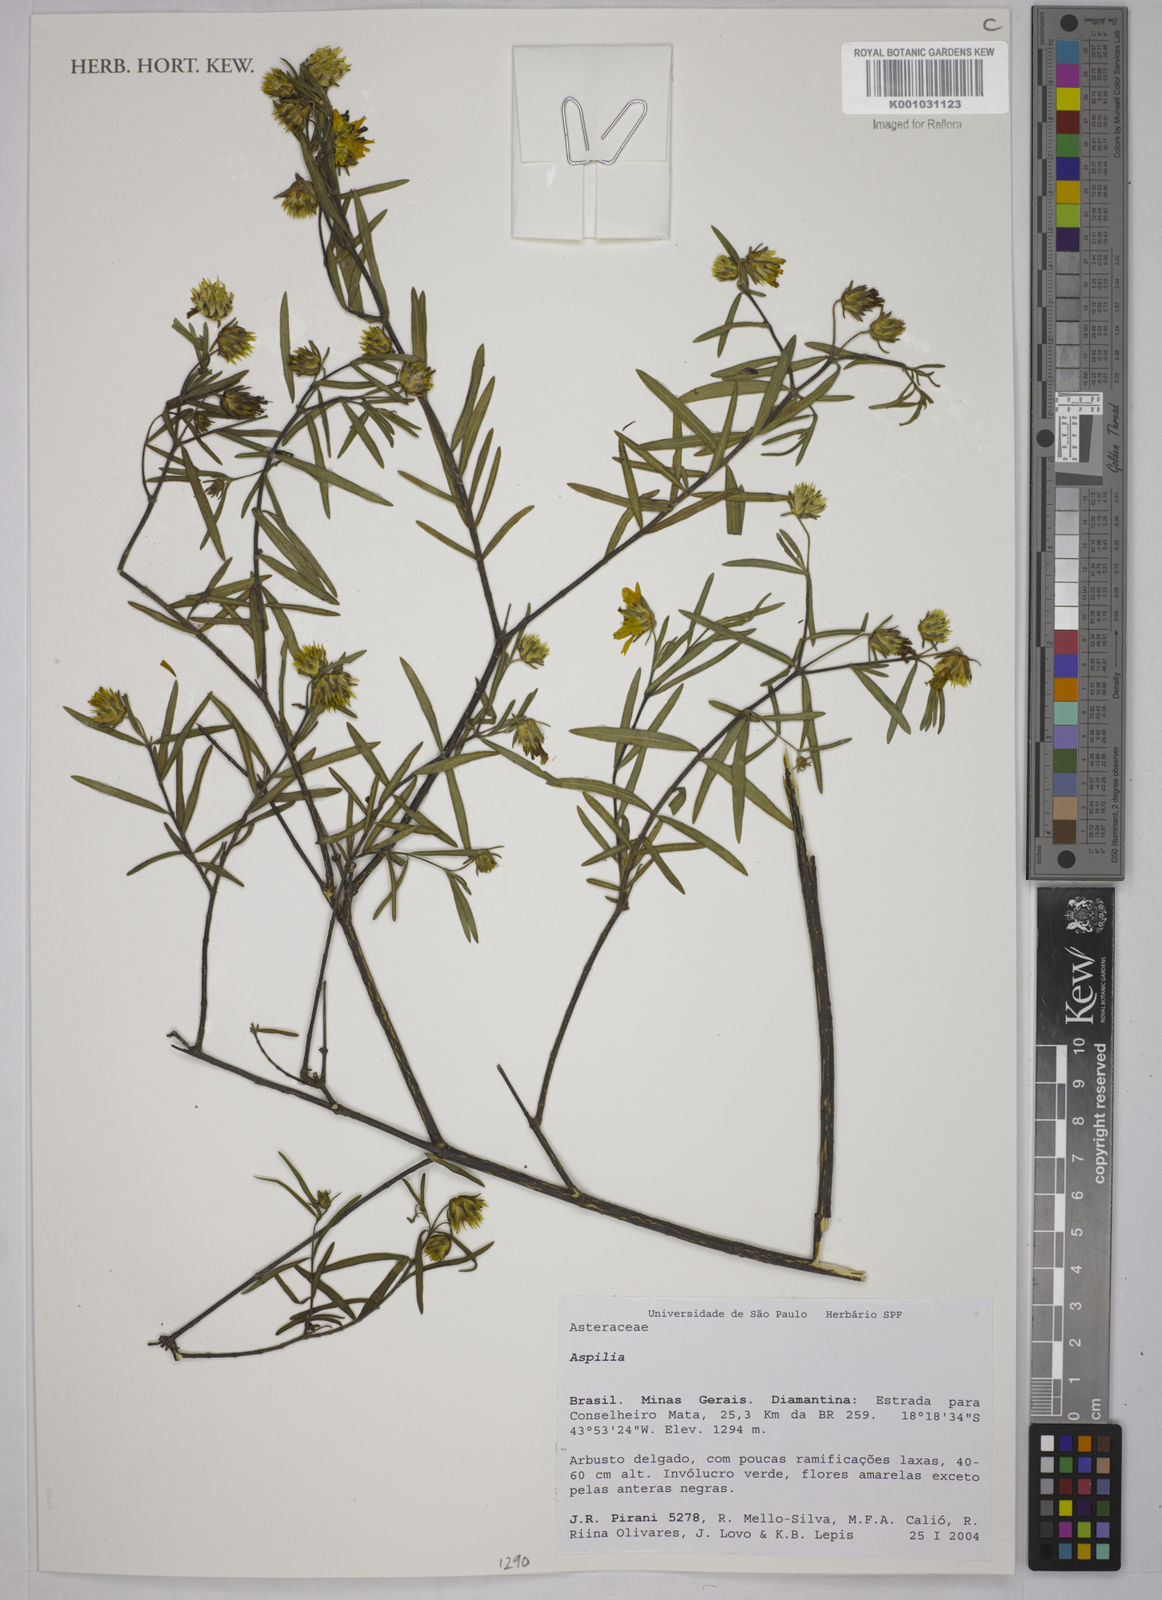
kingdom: Plantae
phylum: Tracheophyta
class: Magnoliopsida
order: Asterales
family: Asteraceae
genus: Aspilia
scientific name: Aspilia
